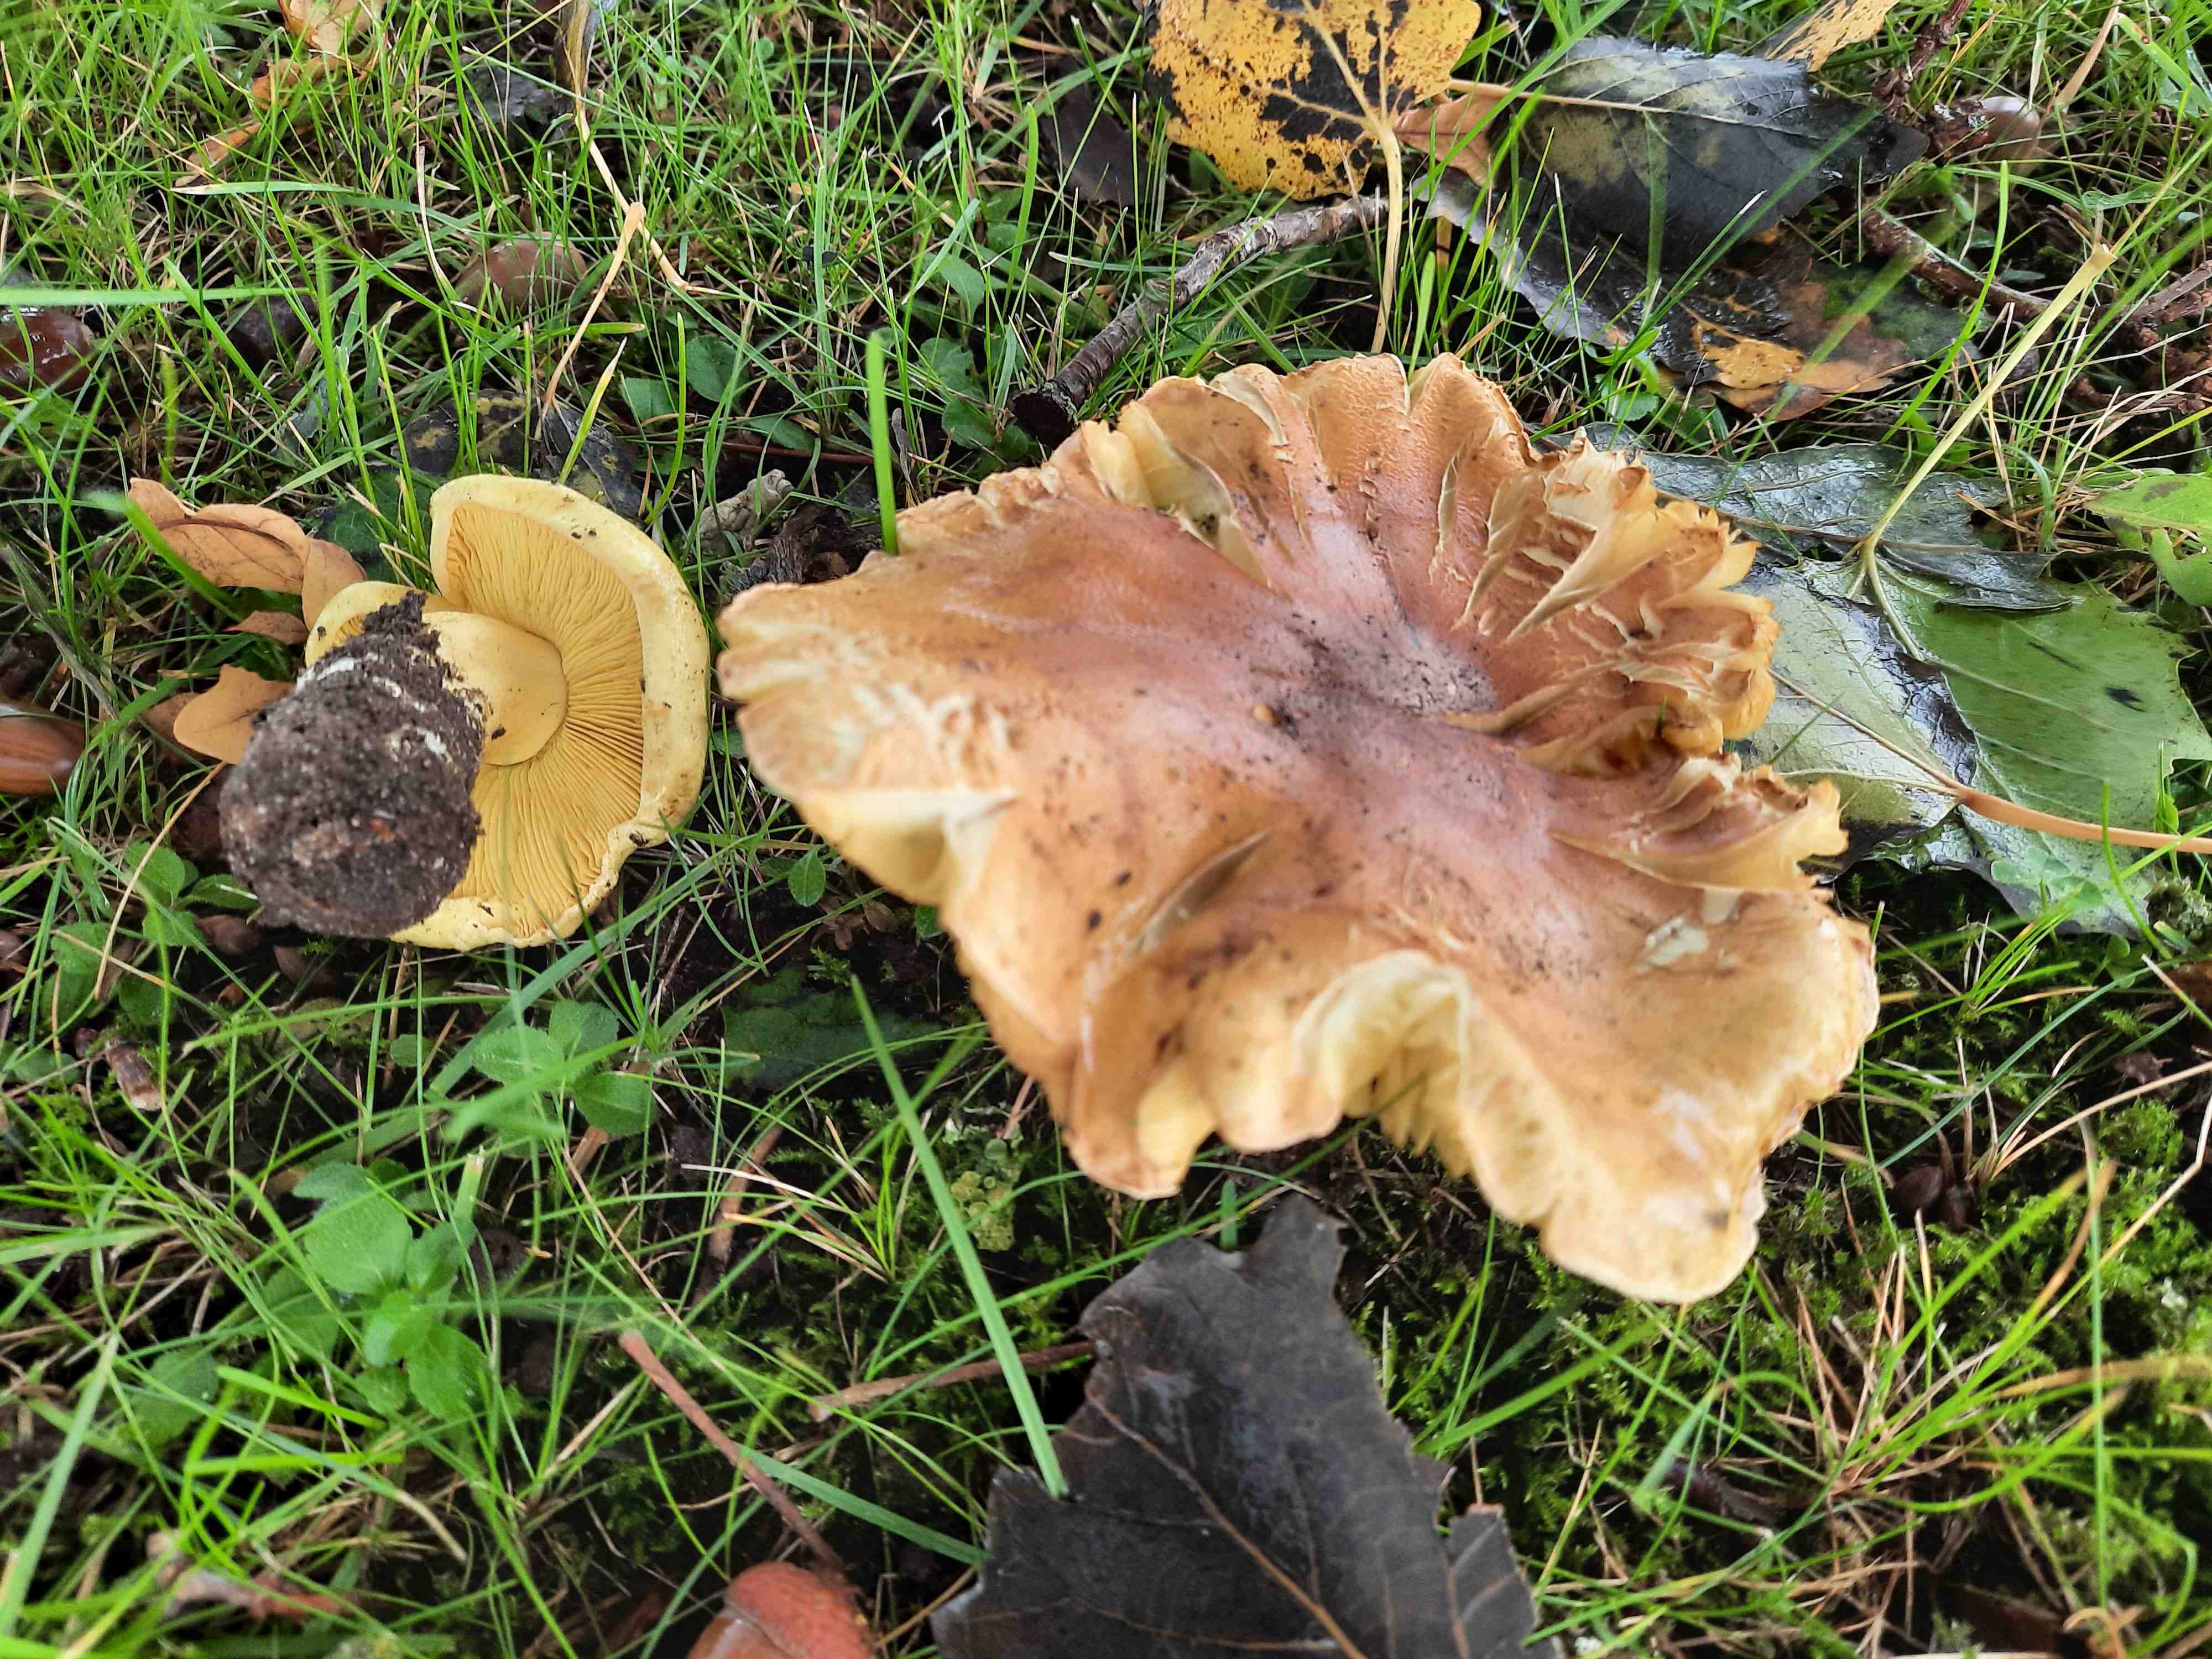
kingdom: Fungi
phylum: Basidiomycota
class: Agaricomycetes
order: Agaricales
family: Tricholomataceae
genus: Tricholoma
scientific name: Tricholoma frondosae
